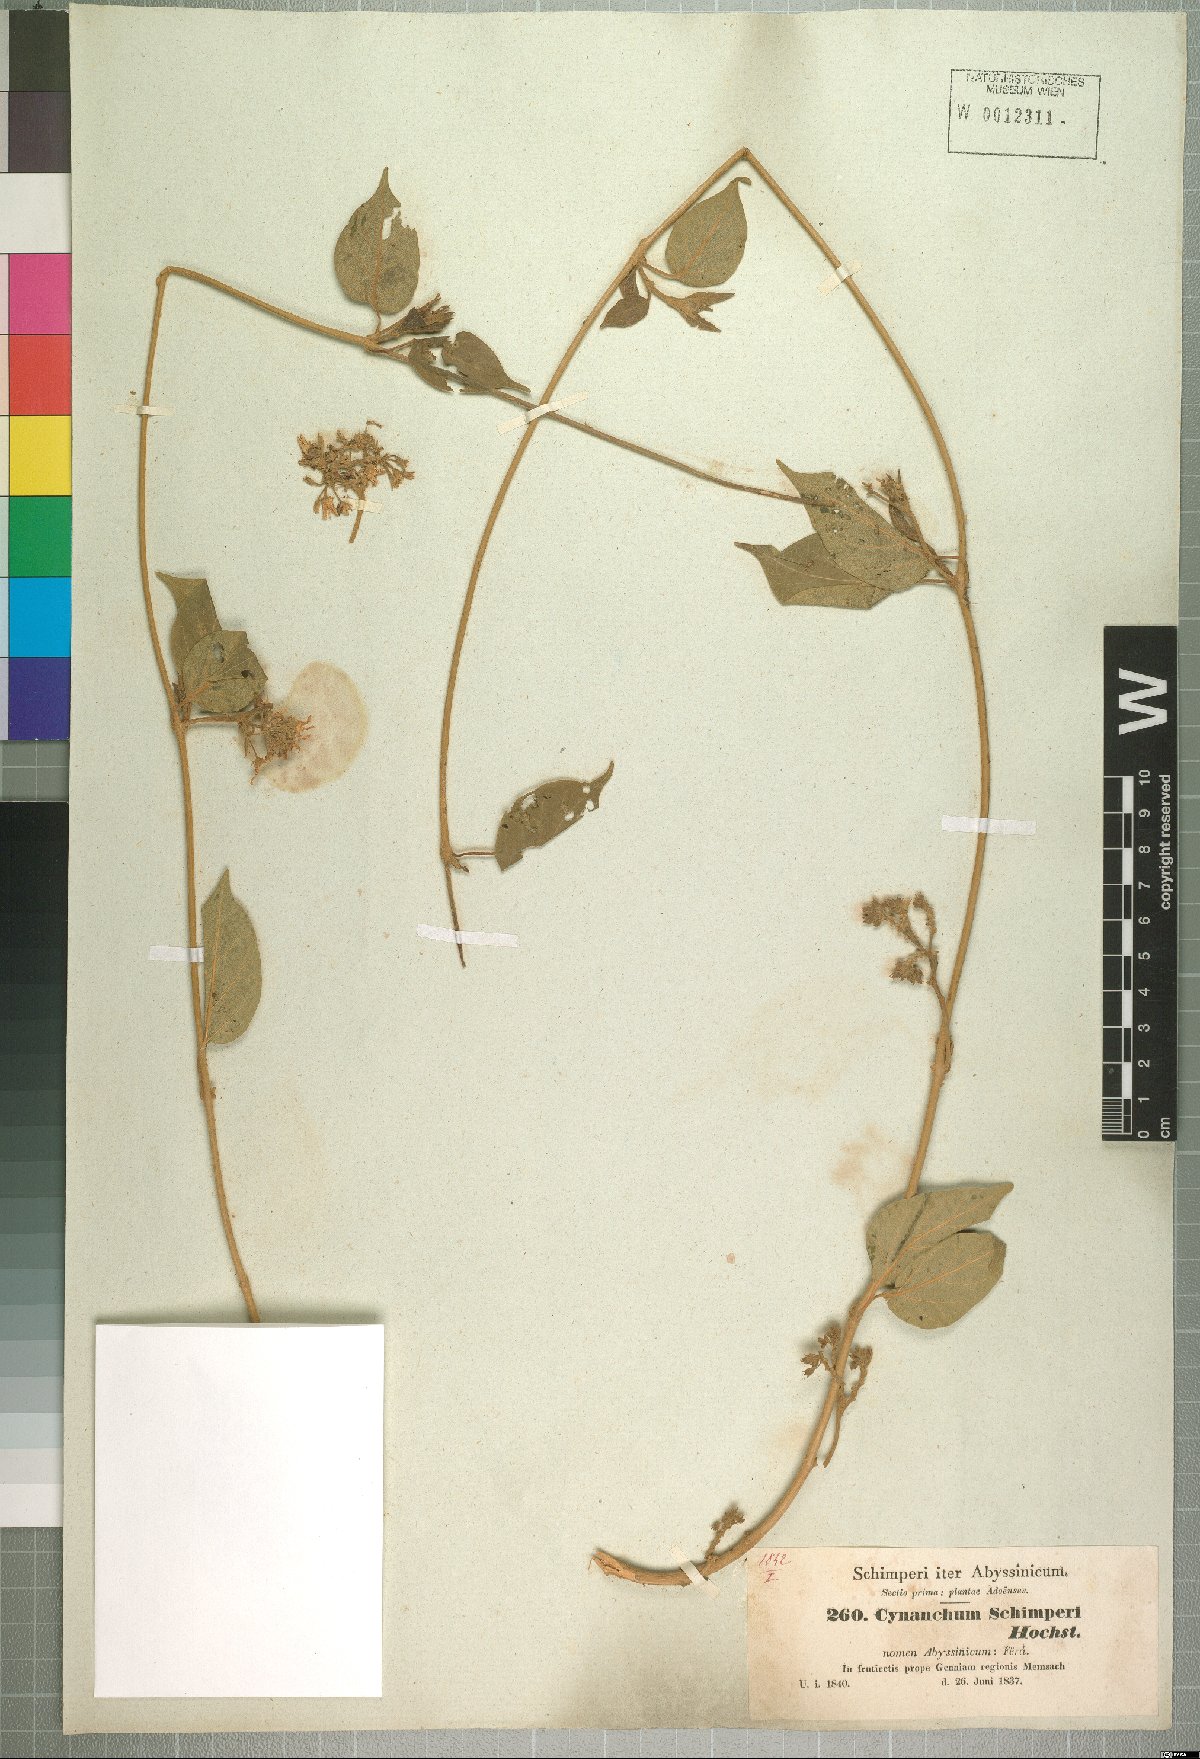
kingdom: Plantae
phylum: Tracheophyta
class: Magnoliopsida
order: Gentianales
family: Apocynaceae
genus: Stephanotis
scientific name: Stephanotis schimperi
